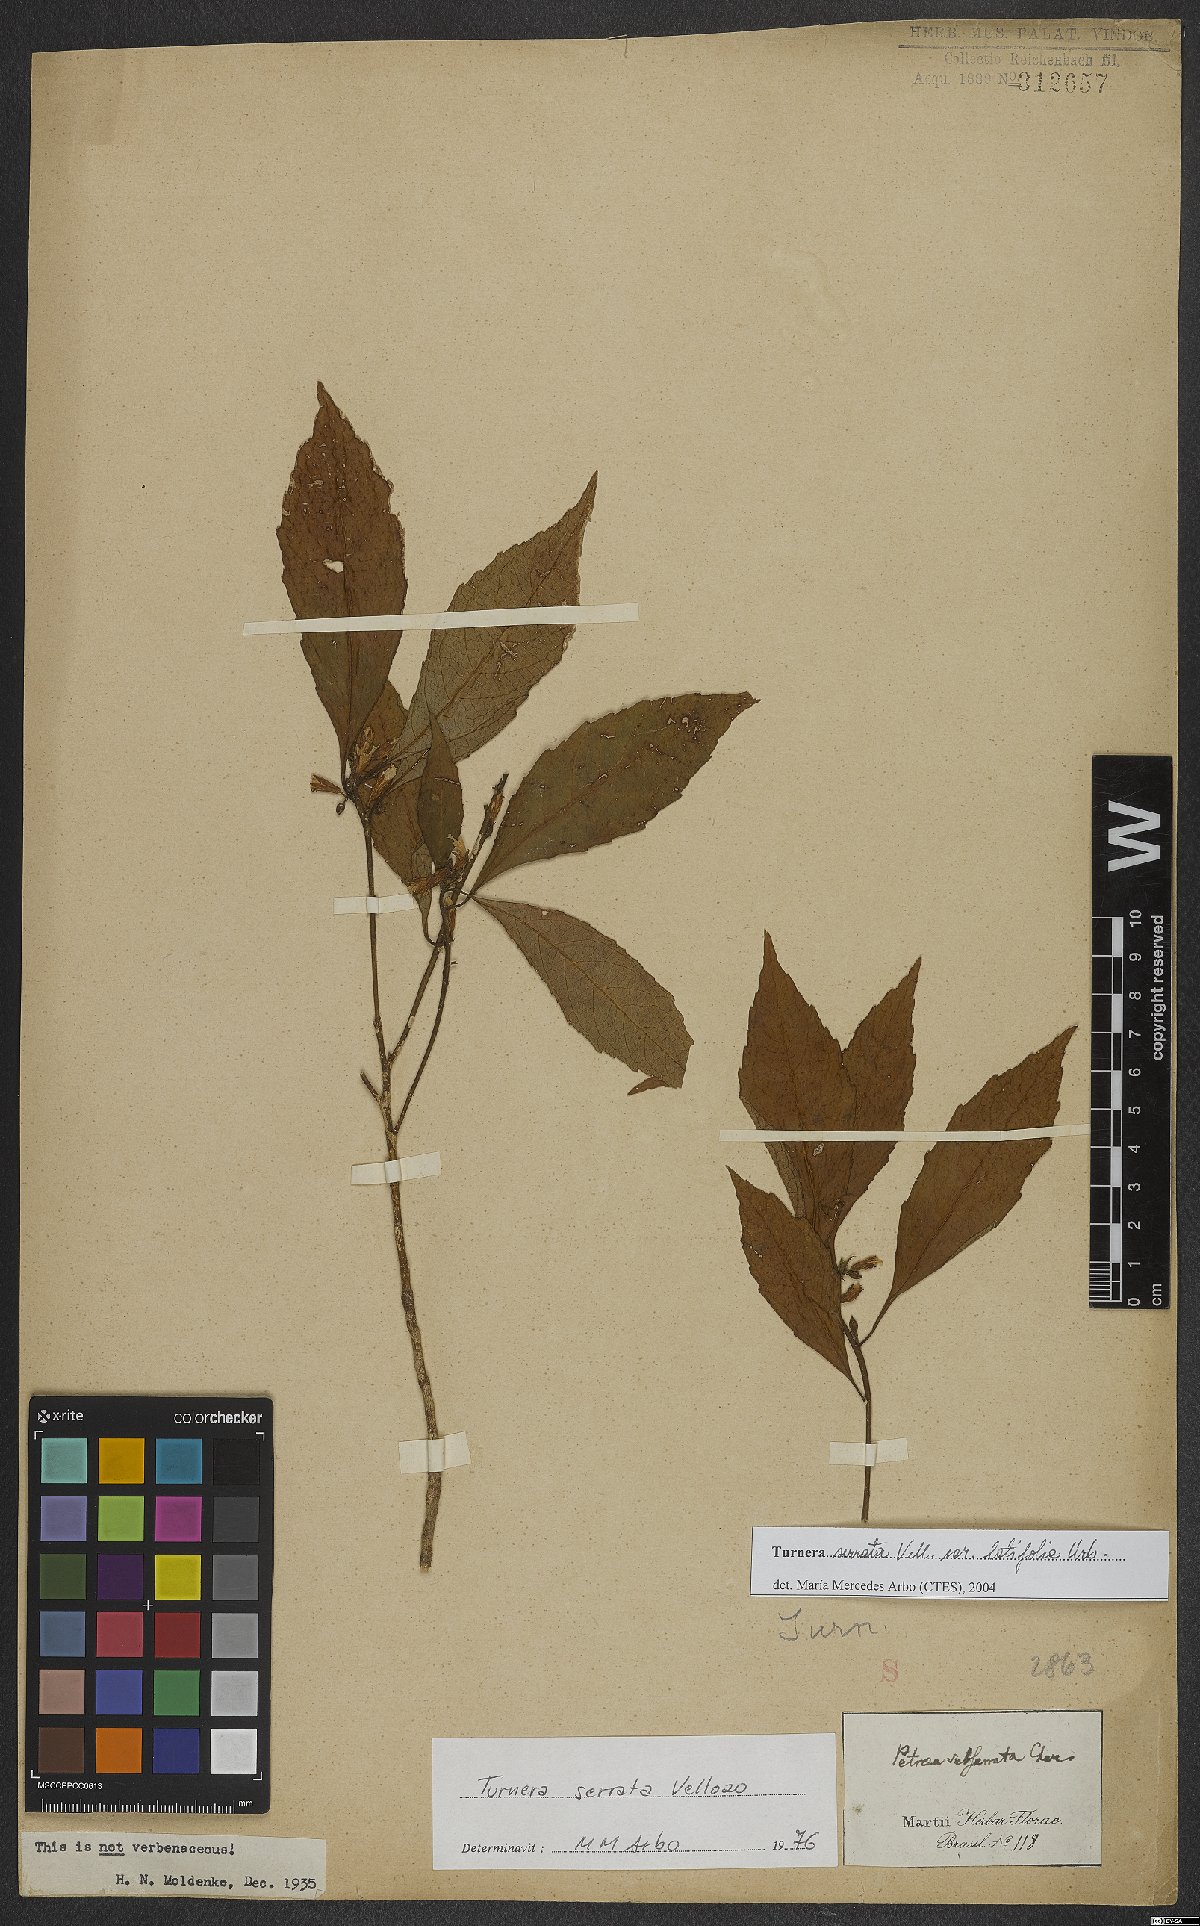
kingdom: Plantae
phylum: Tracheophyta
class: Magnoliopsida
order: Malpighiales
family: Turneraceae
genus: Turnera
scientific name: Turnera serrata
